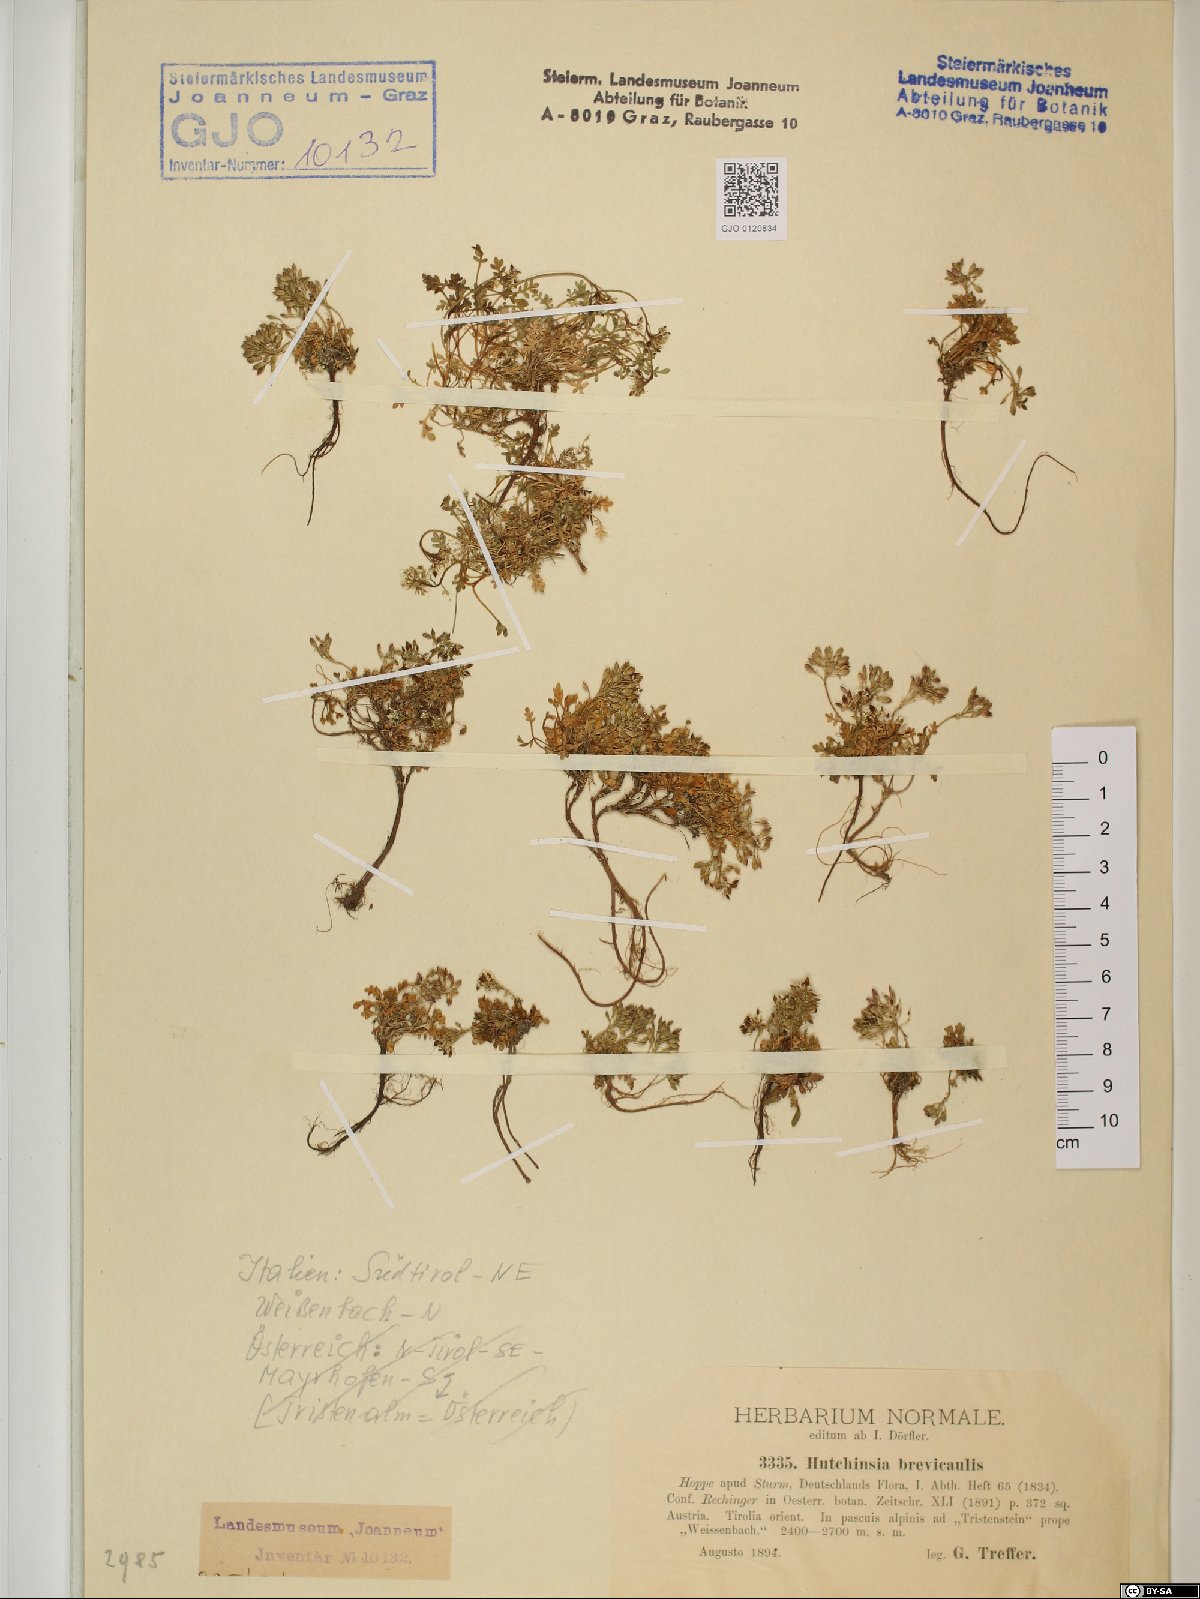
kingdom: Plantae
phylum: Tracheophyta
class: Magnoliopsida
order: Brassicales
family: Brassicaceae
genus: Hornungia
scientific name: Hornungia alpina
